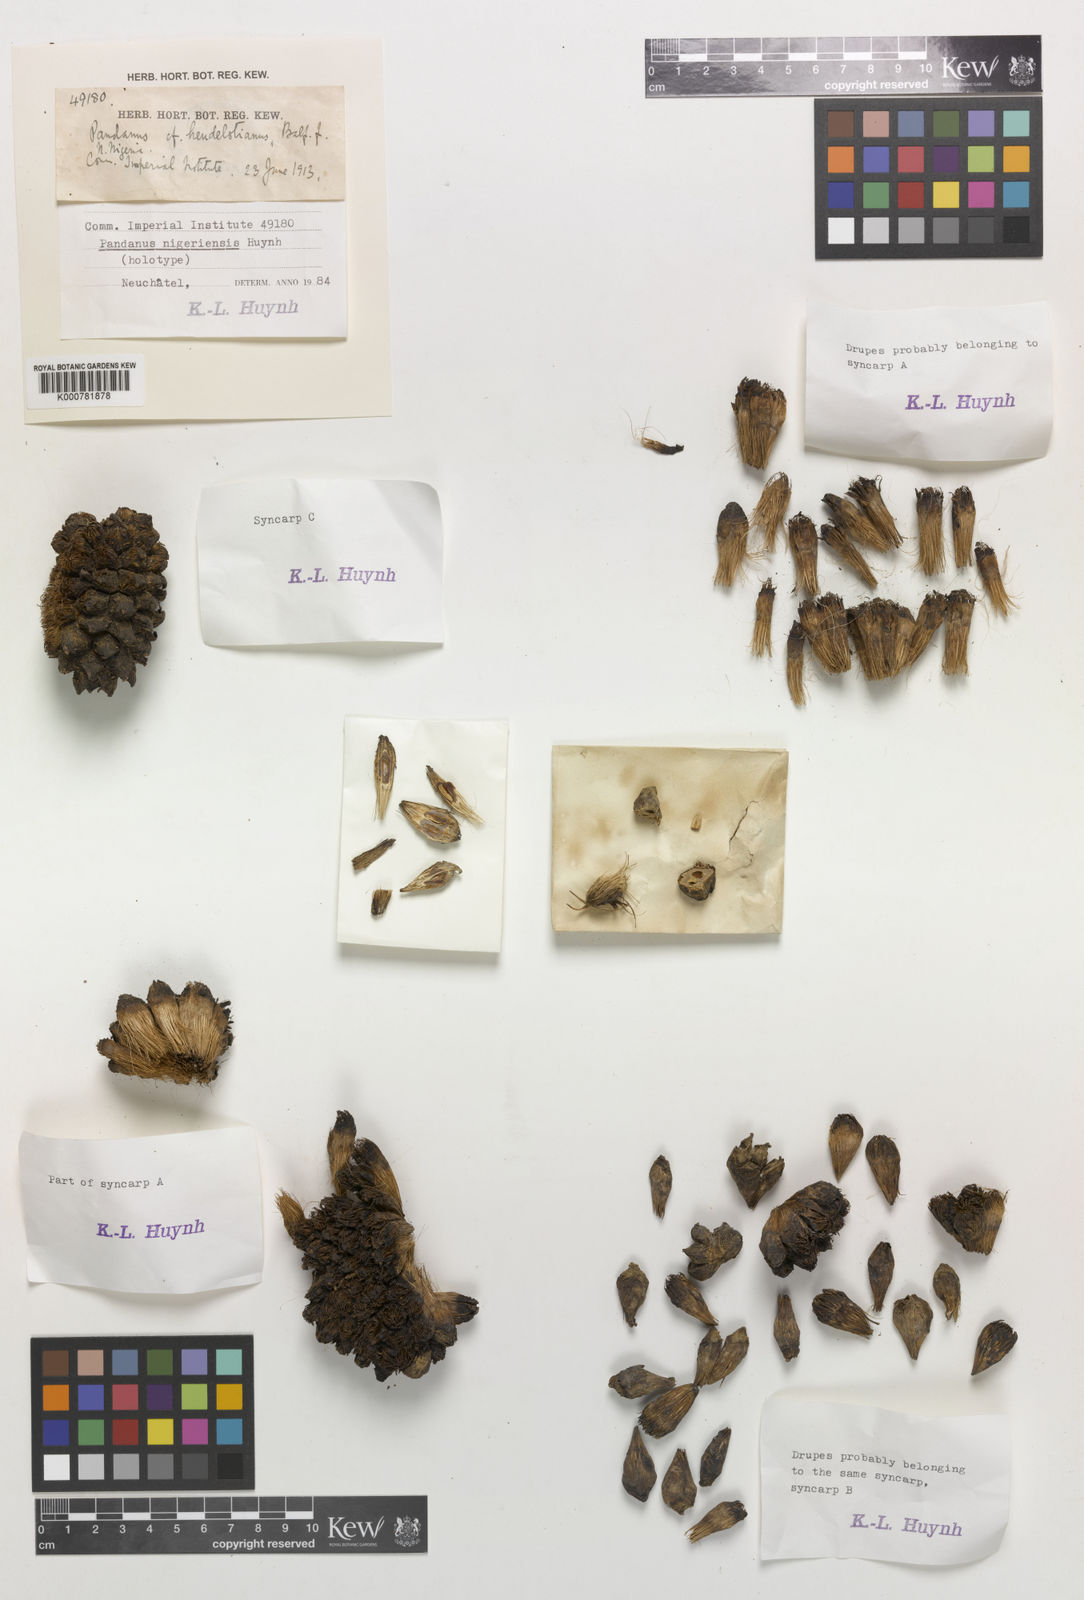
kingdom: Plantae
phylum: Tracheophyta
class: Liliopsida
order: Pandanales
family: Pandanaceae
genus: Pandanus
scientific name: Pandanus
